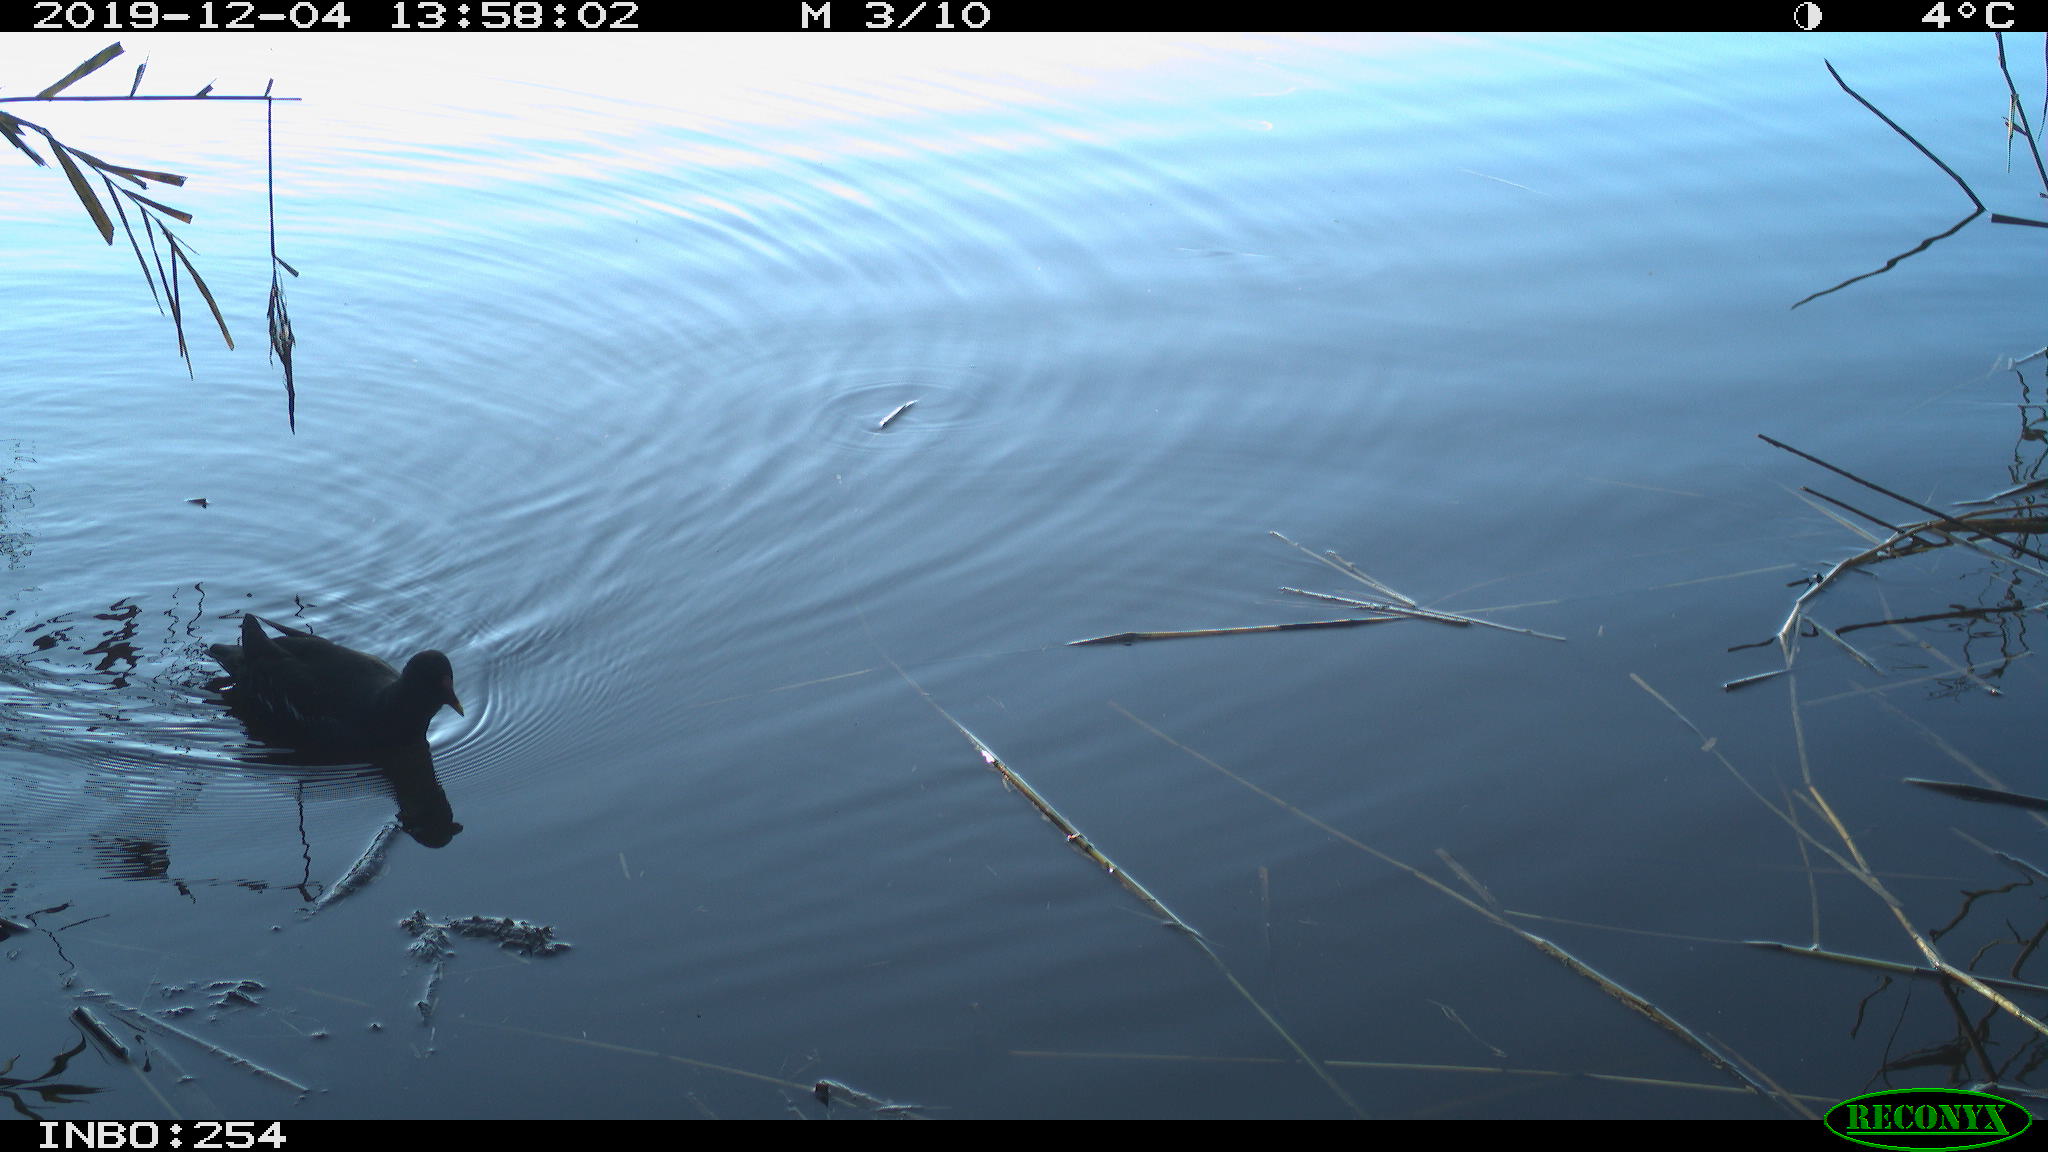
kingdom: Animalia
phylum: Chordata
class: Aves
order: Gruiformes
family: Rallidae
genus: Gallinula
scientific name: Gallinula chloropus
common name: Common moorhen
